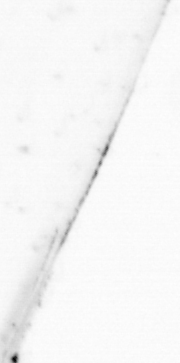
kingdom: Animalia
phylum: Chaetognatha
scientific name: Chaetognatha
